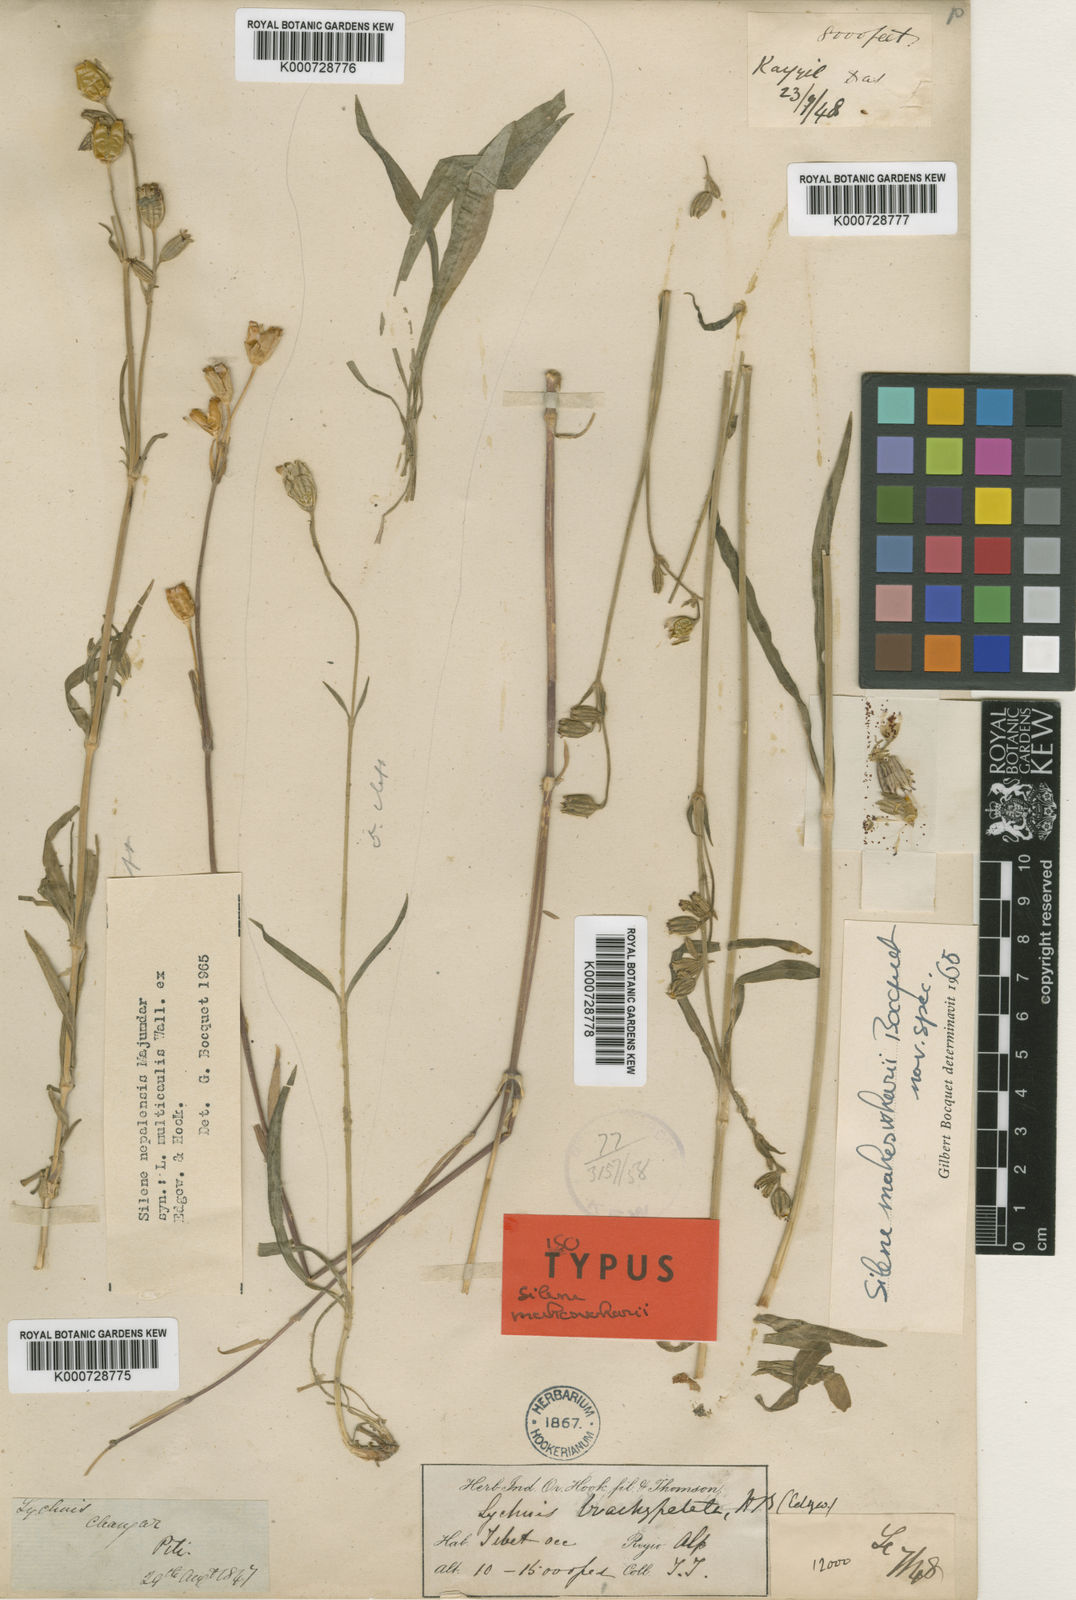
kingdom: Plantae
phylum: Tracheophyta
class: Magnoliopsida
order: Caryophyllales
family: Caryophyllaceae
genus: Silene
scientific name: Silene caespitella
